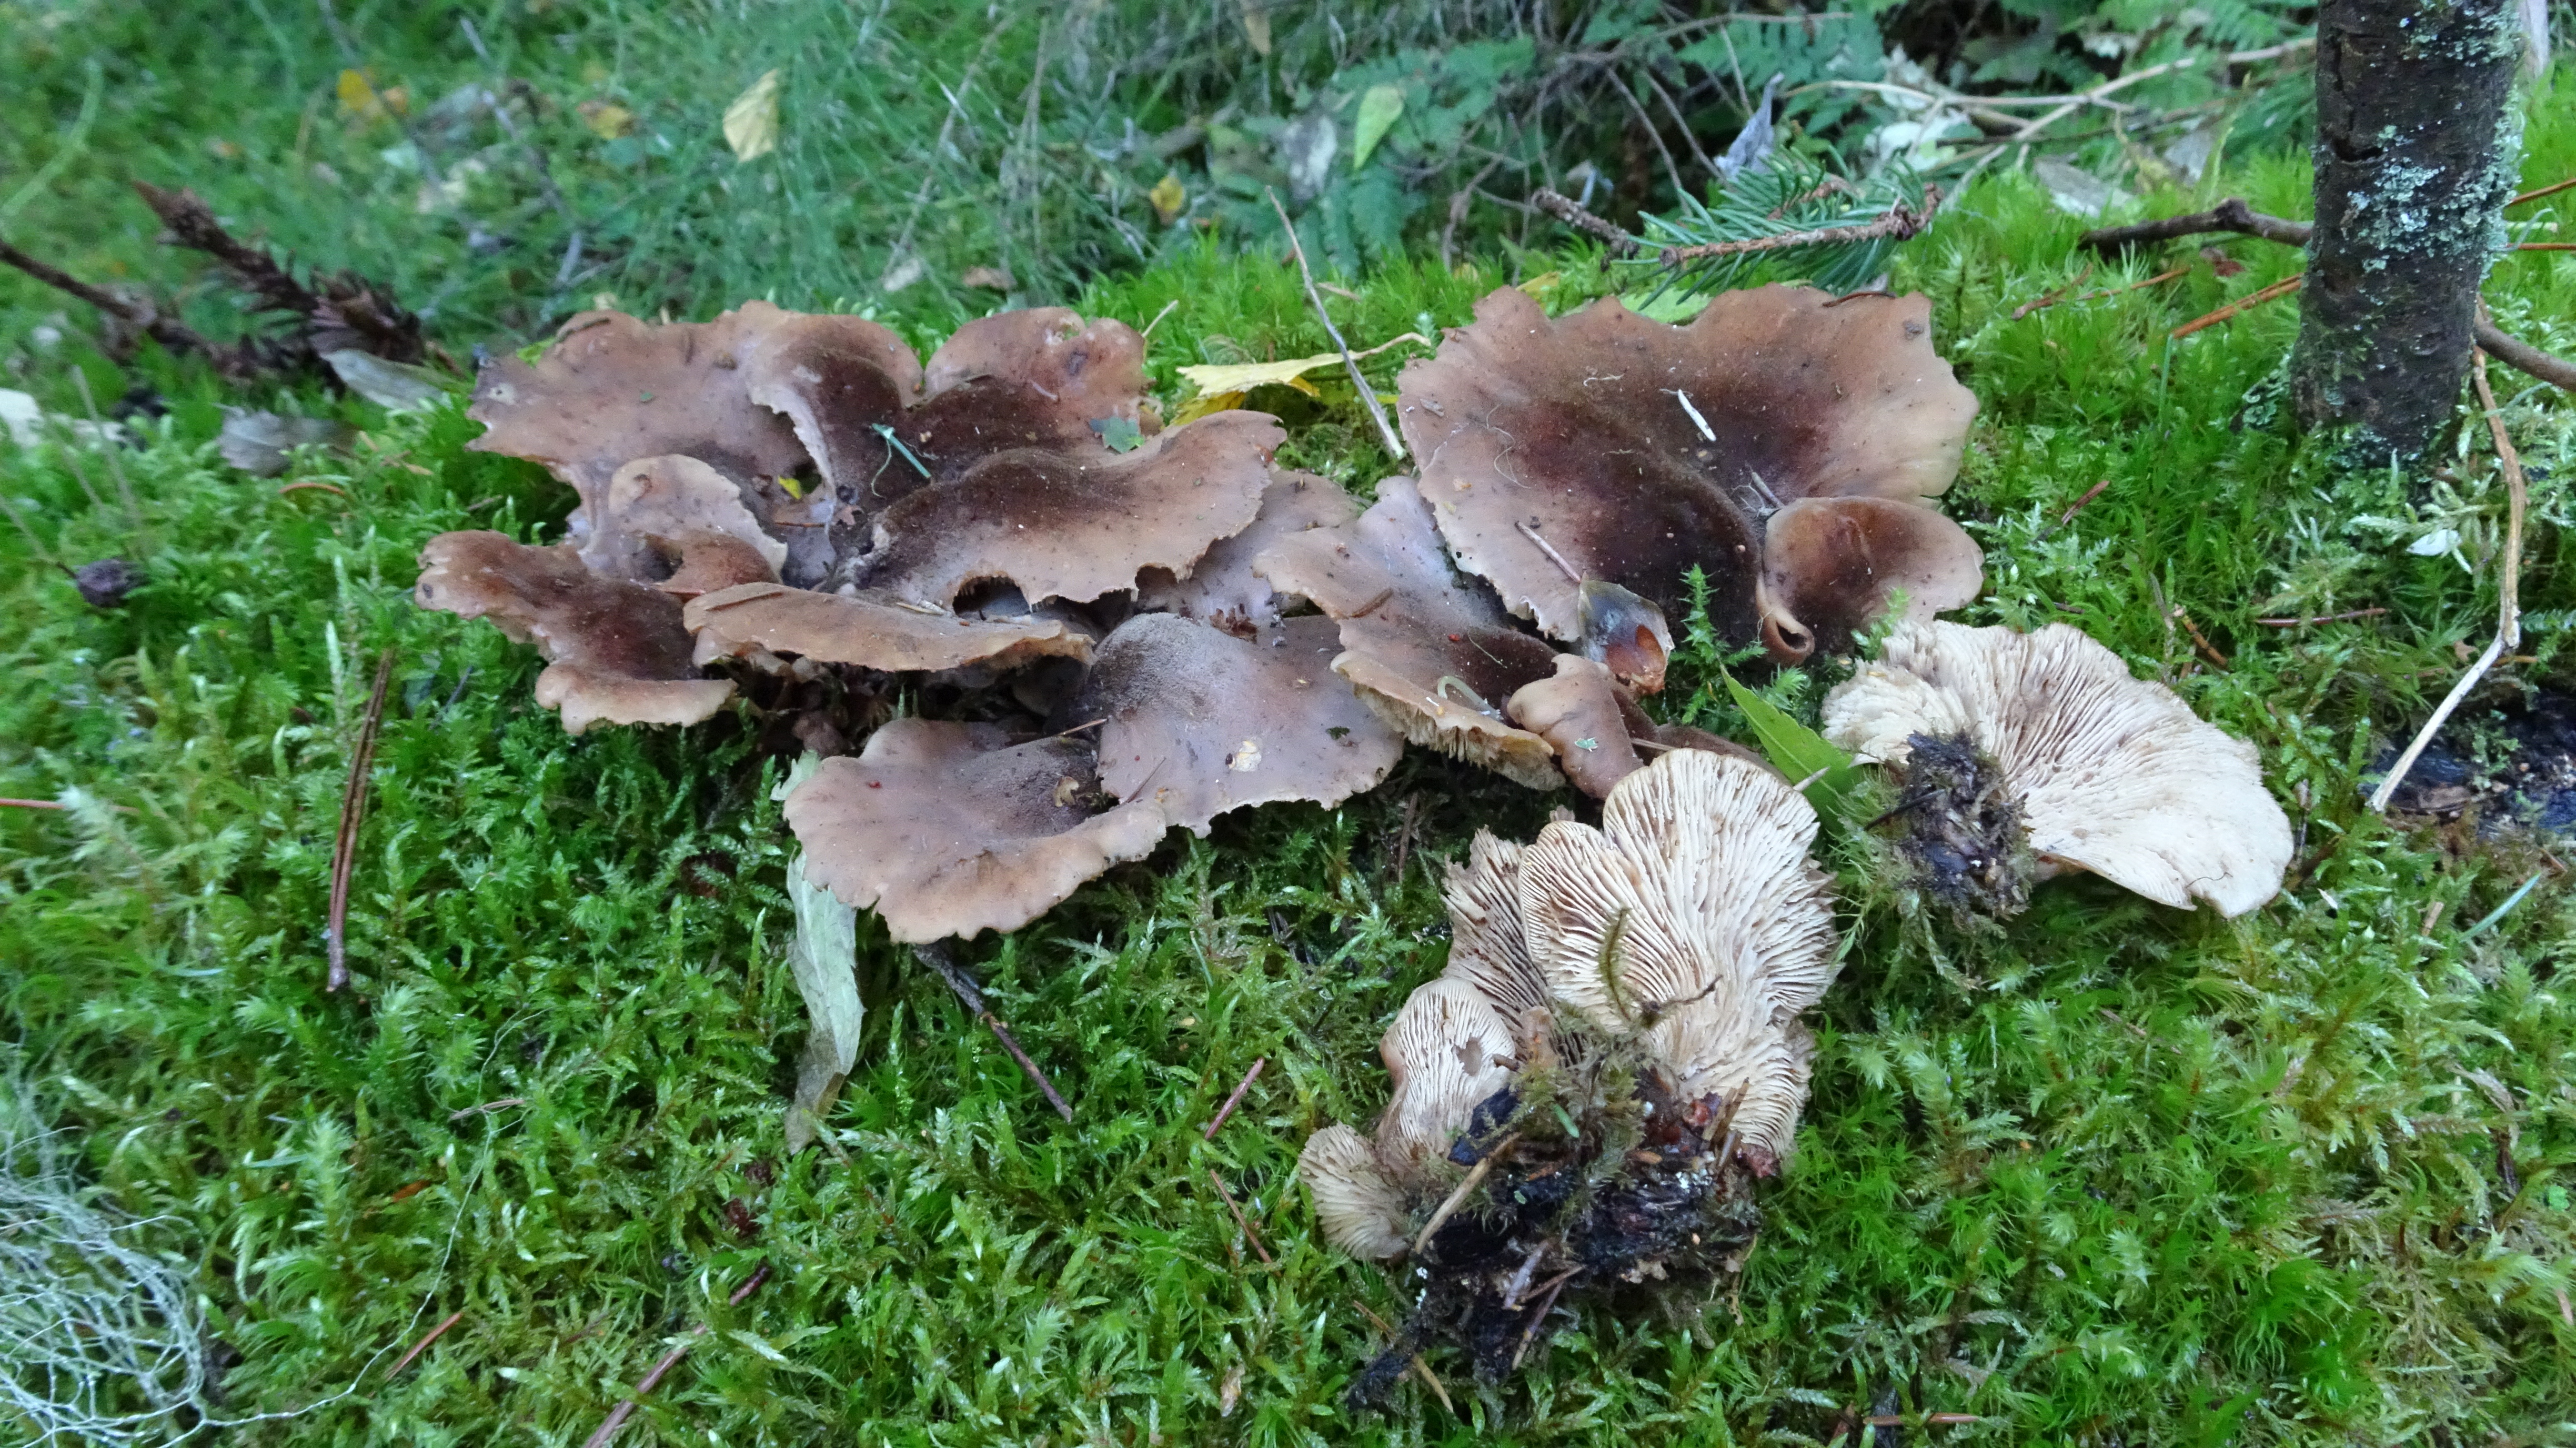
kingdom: Fungi
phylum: Basidiomycota
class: Agaricomycetes
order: Russulales
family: Auriscalpiaceae
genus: Lentinellus
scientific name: Lentinellus ursinus
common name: Bear lentinus
